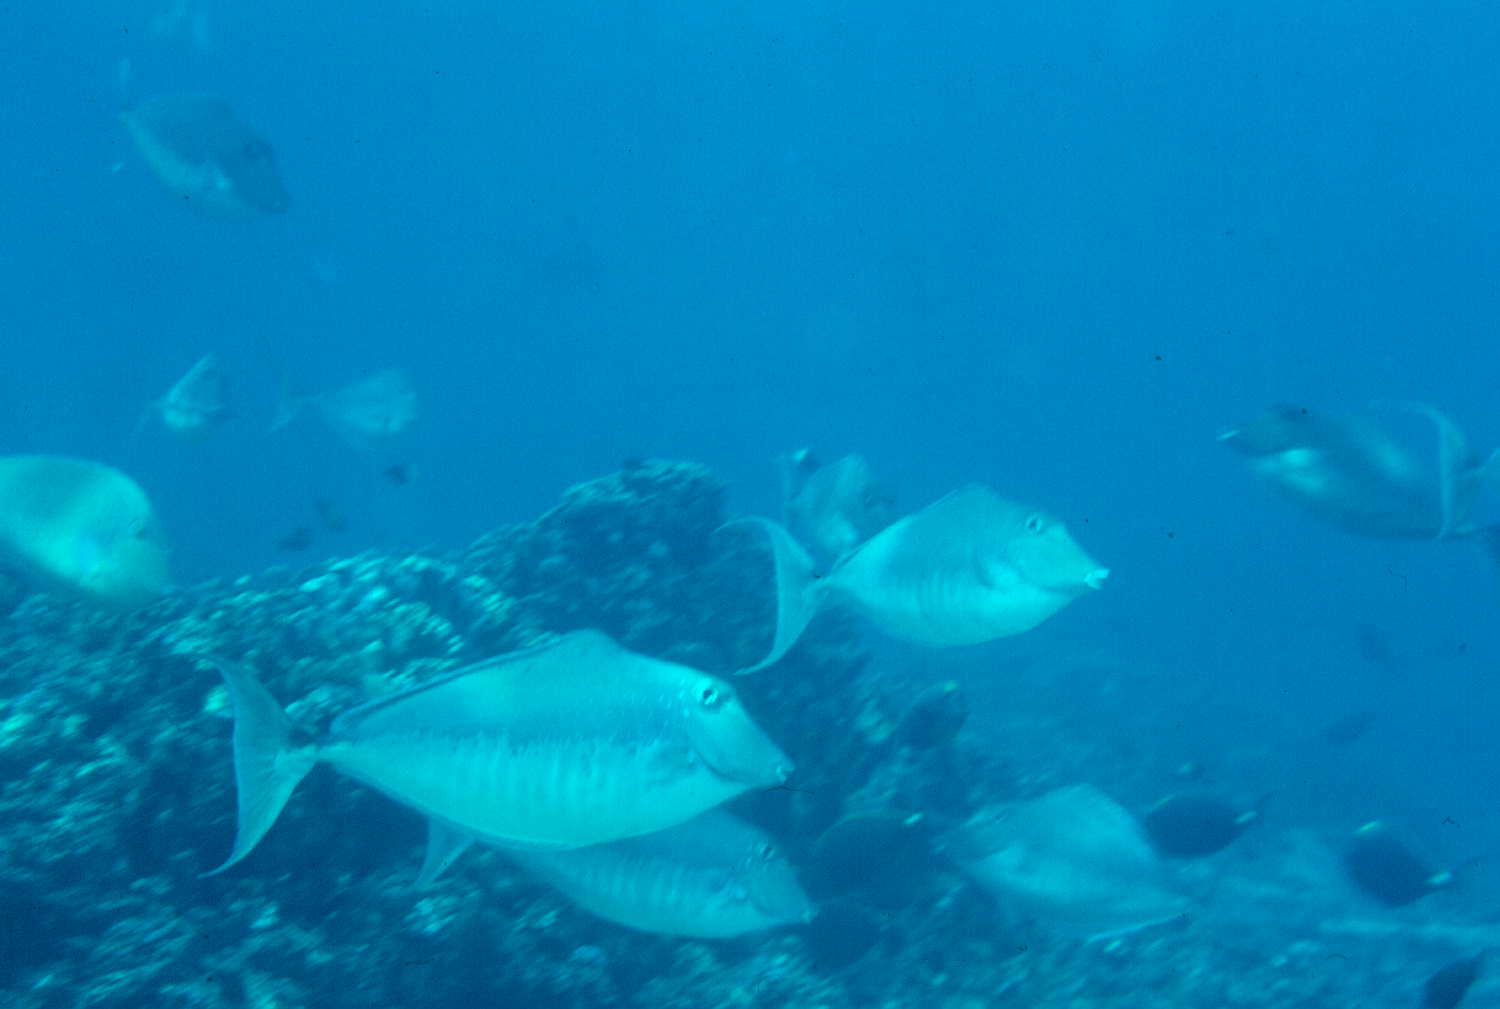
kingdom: Animalia
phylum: Chordata
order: Perciformes
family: Acanthuridae
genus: Naso
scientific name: Naso brachycentron
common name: Humpback unicornfish
